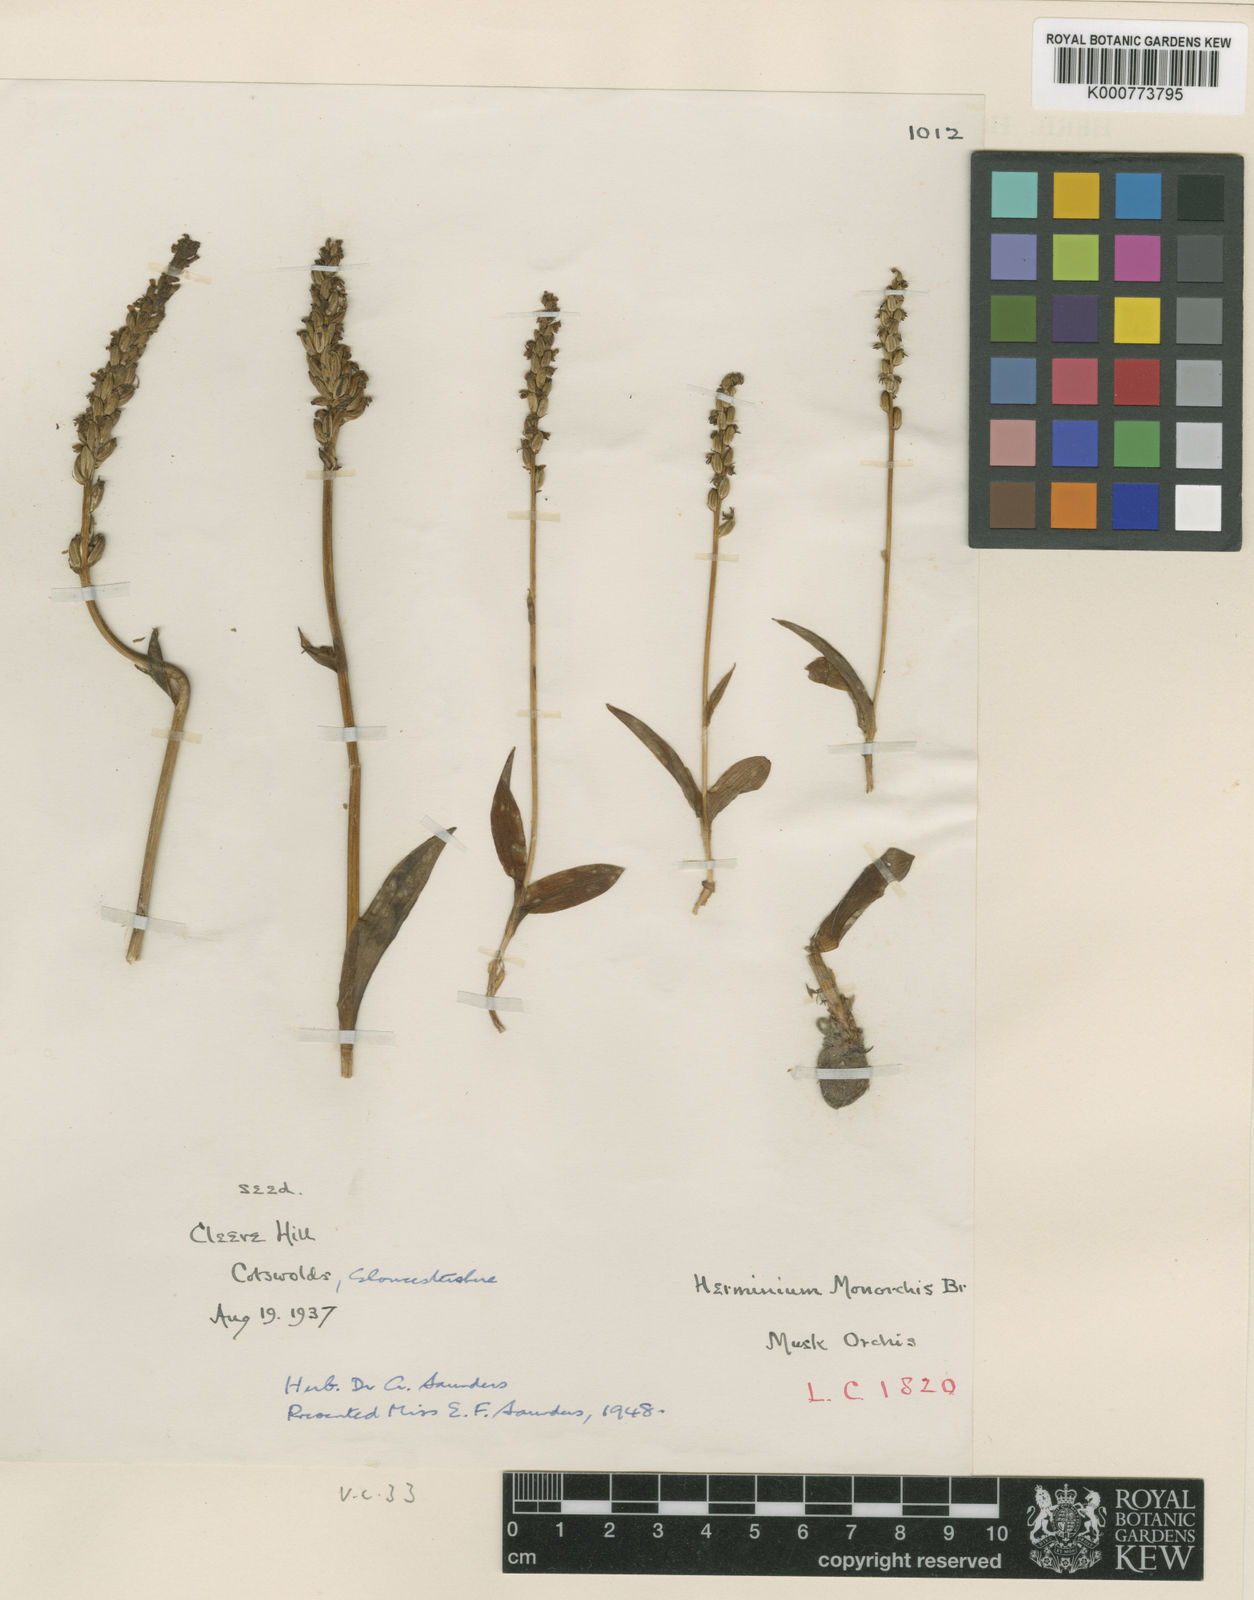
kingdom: Plantae
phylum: Tracheophyta
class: Liliopsida
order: Asparagales
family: Orchidaceae
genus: Herminium
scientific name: Herminium monorchis
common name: Musk orchid
